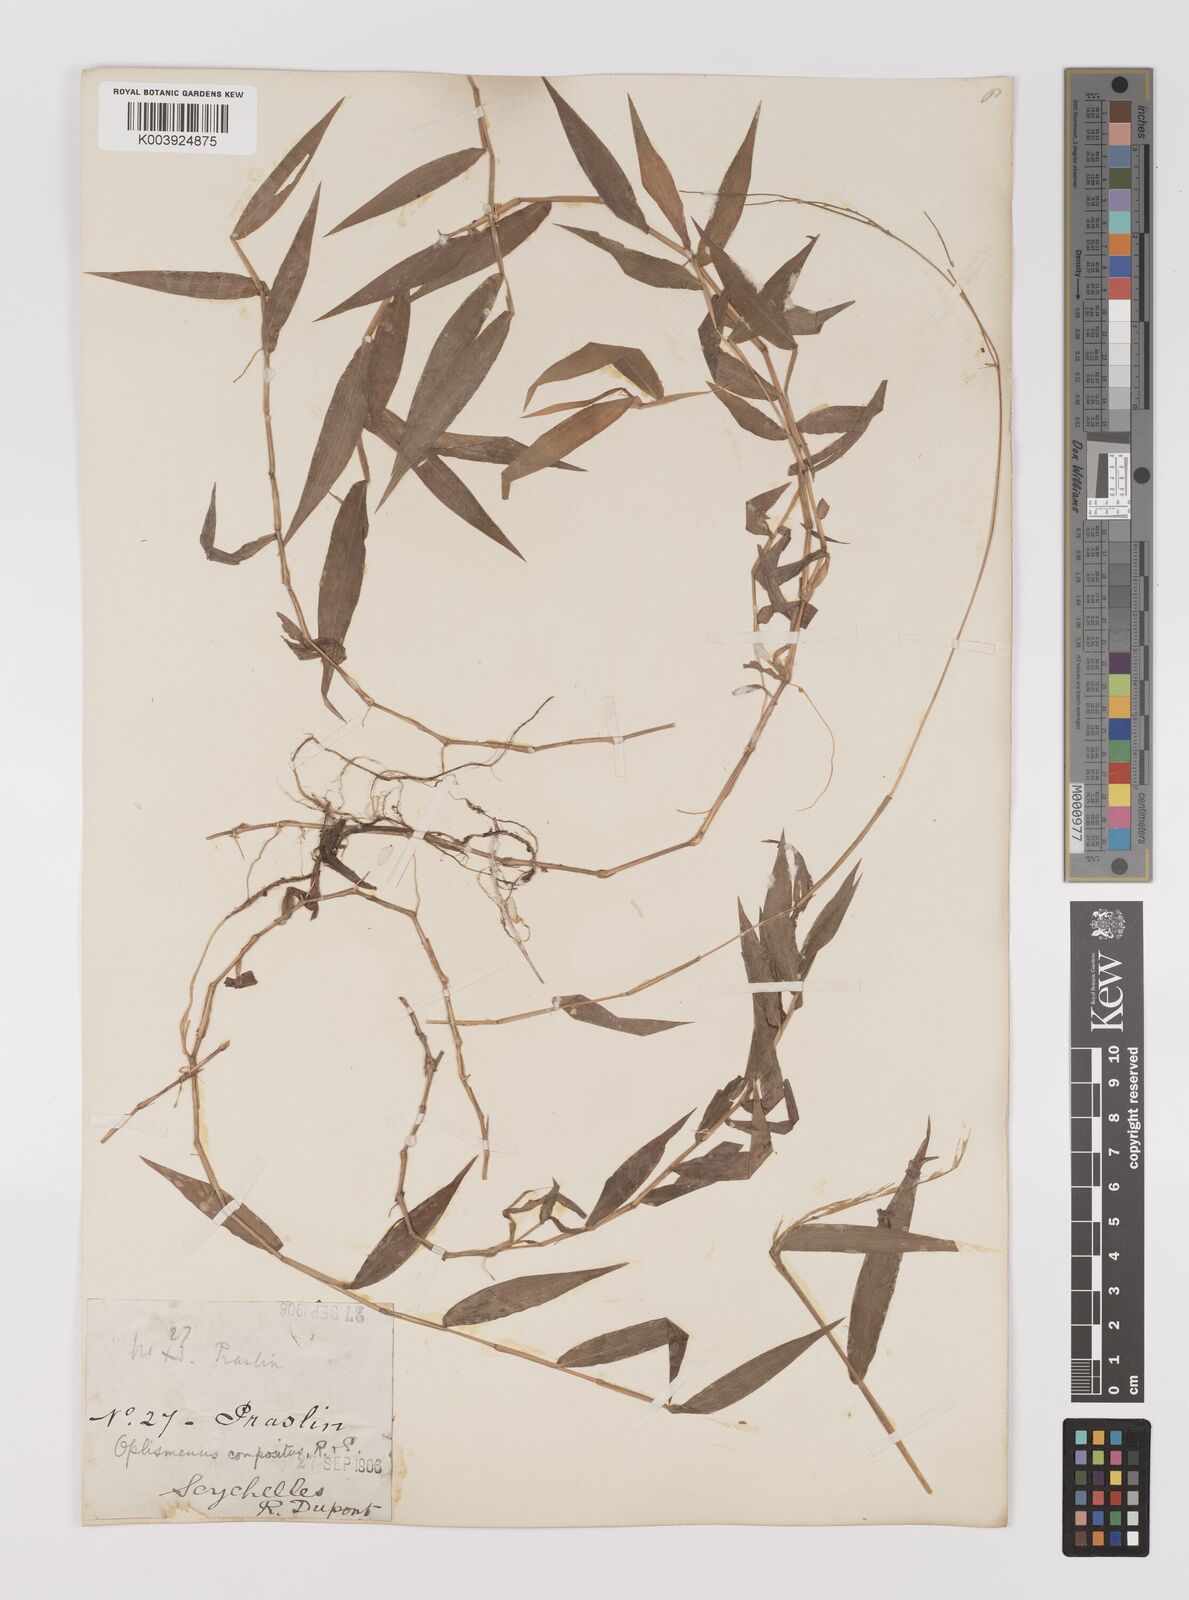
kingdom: Plantae
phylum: Tracheophyta
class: Liliopsida
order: Poales
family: Poaceae
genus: Oplismenus
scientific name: Oplismenus compositus
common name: Running mountain grass
